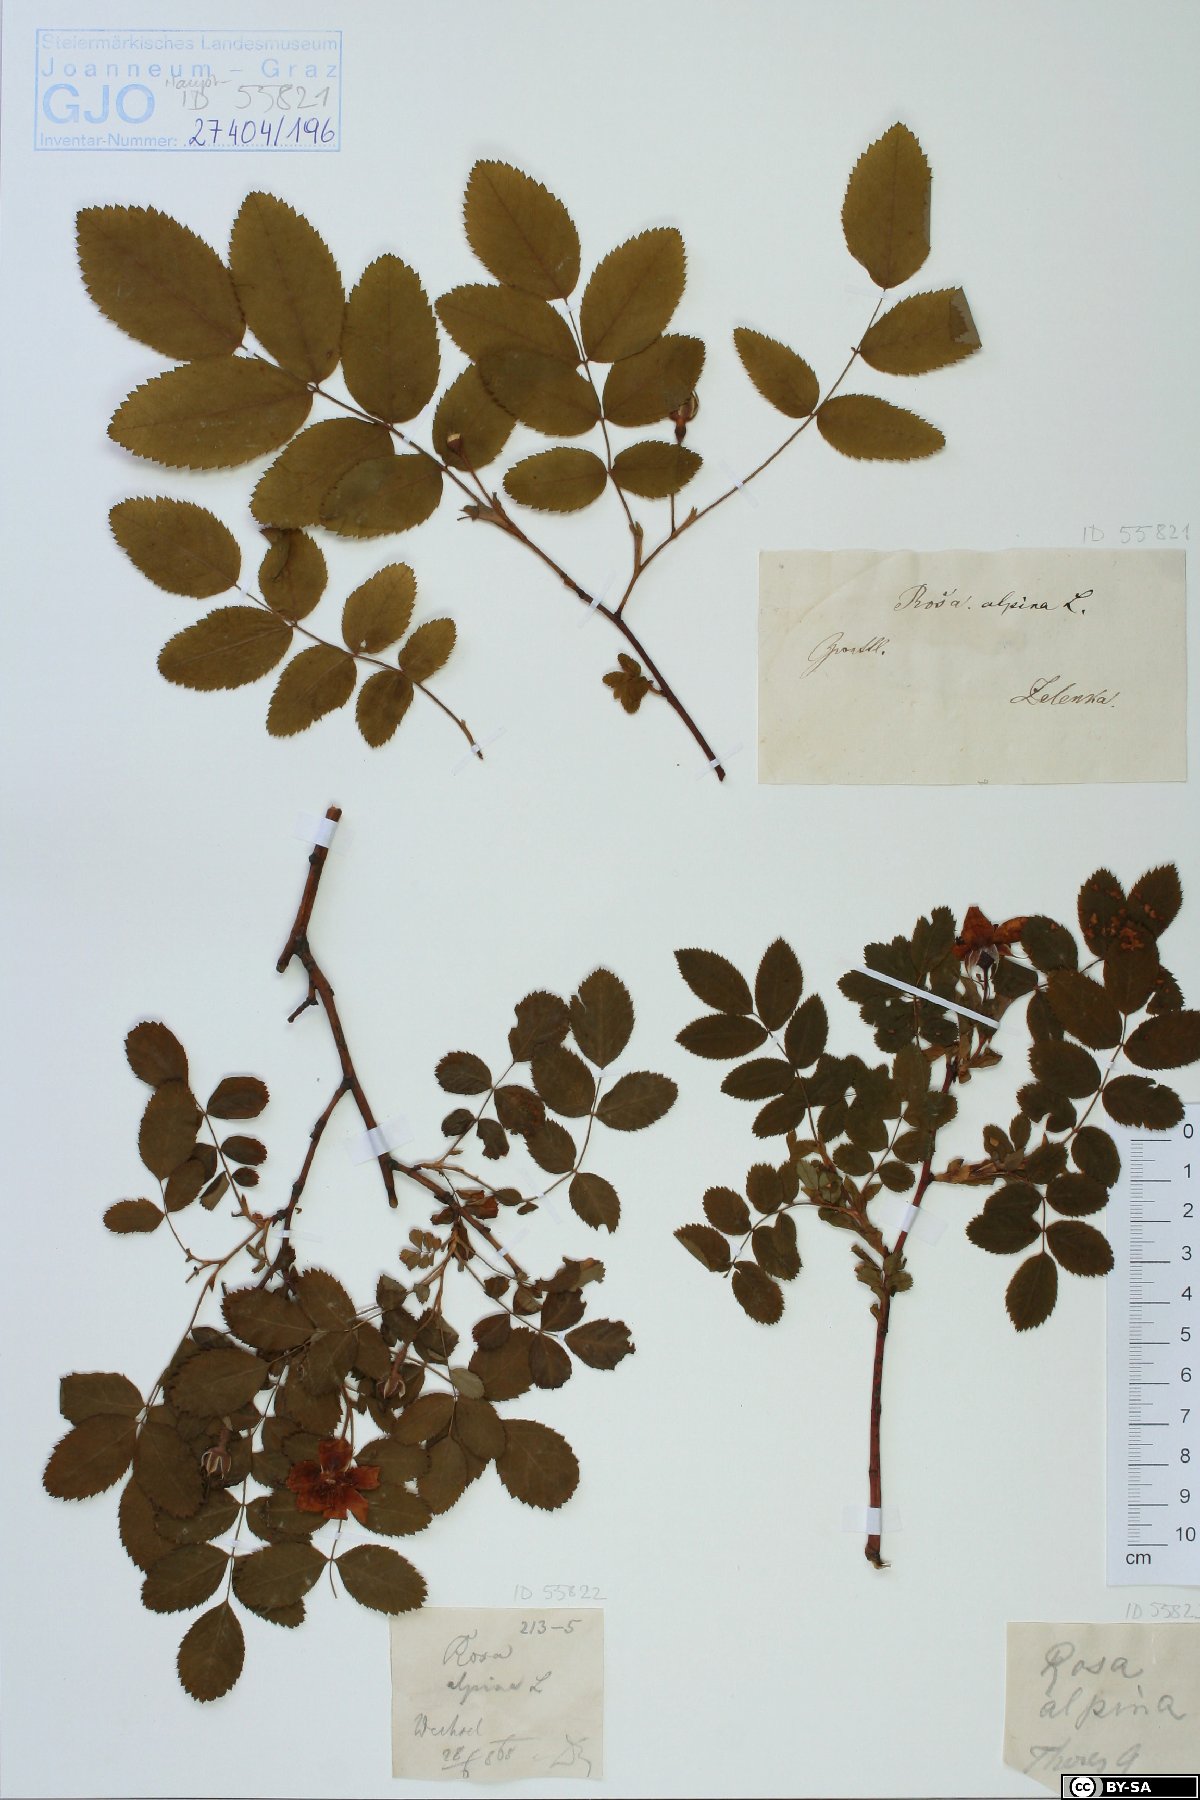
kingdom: Plantae
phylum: Tracheophyta
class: Magnoliopsida
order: Rosales
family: Rosaceae
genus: Rosa
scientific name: Rosa pendulina
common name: Alpine rose
